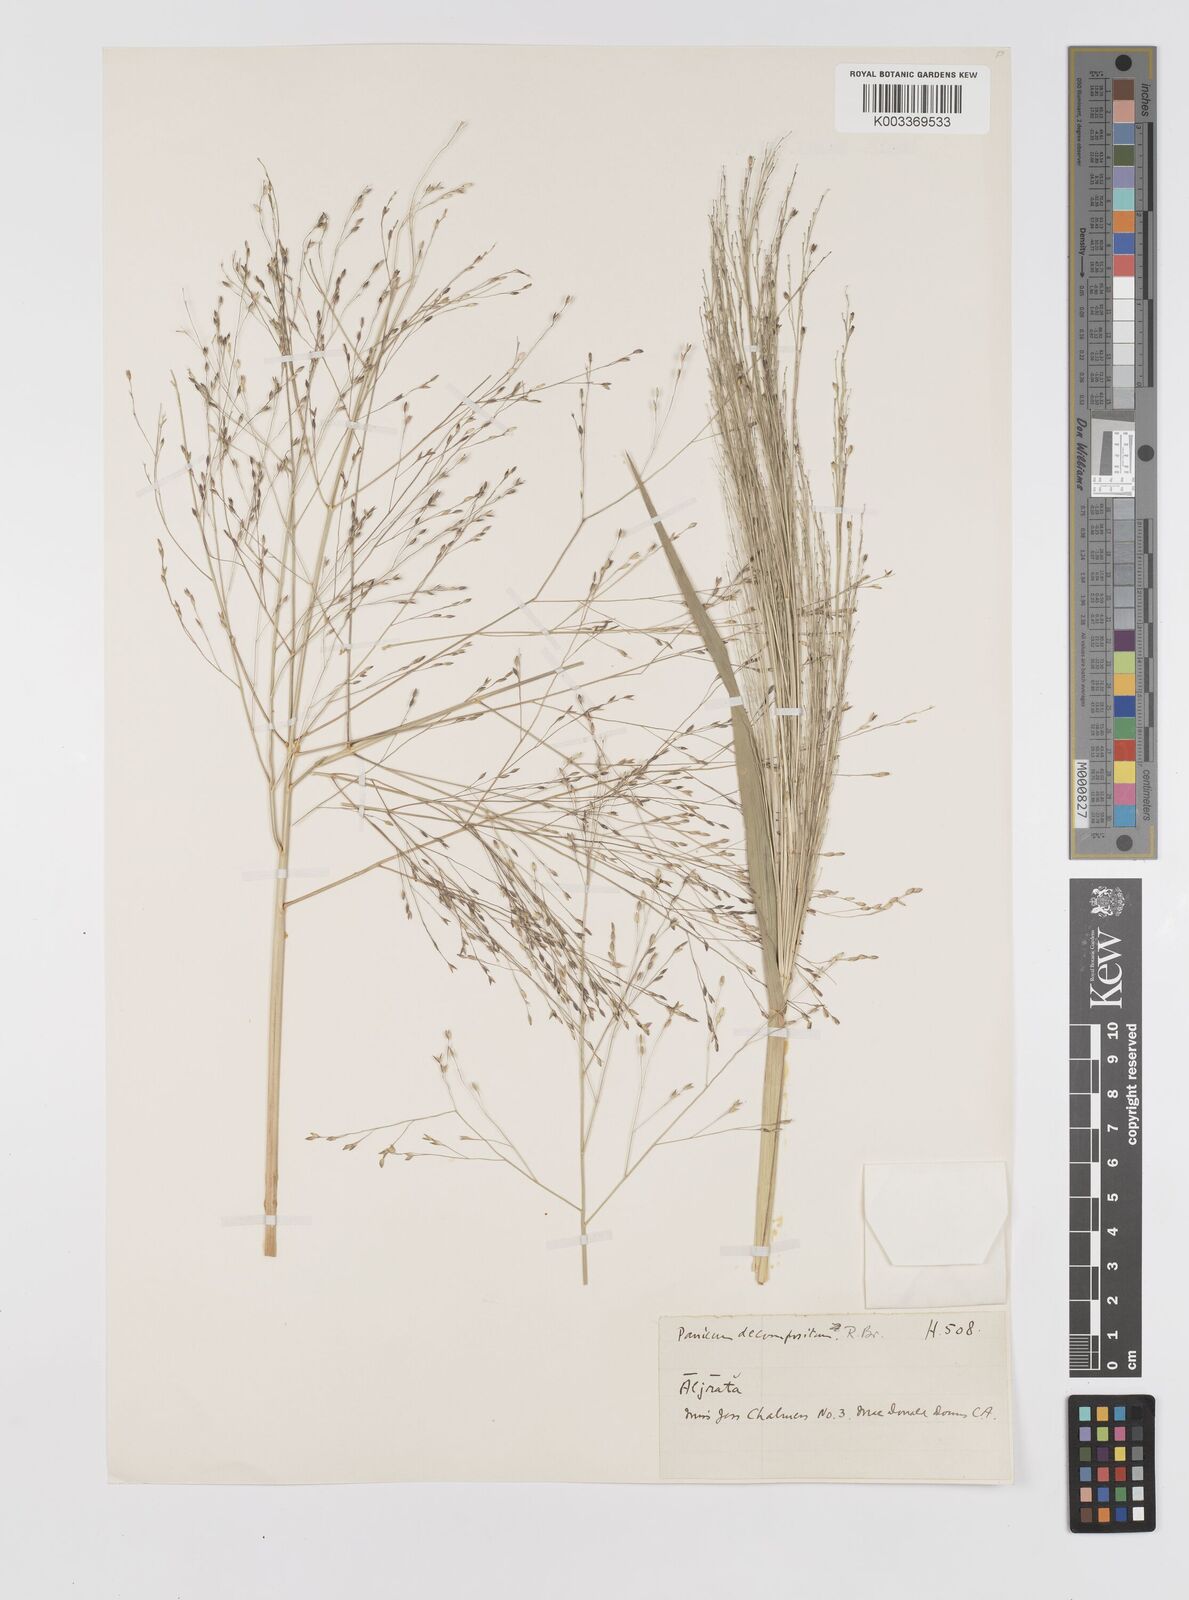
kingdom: Plantae
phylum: Tracheophyta
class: Liliopsida
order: Poales
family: Poaceae
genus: Panicum
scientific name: Panicum decompositum
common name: Australian millet
